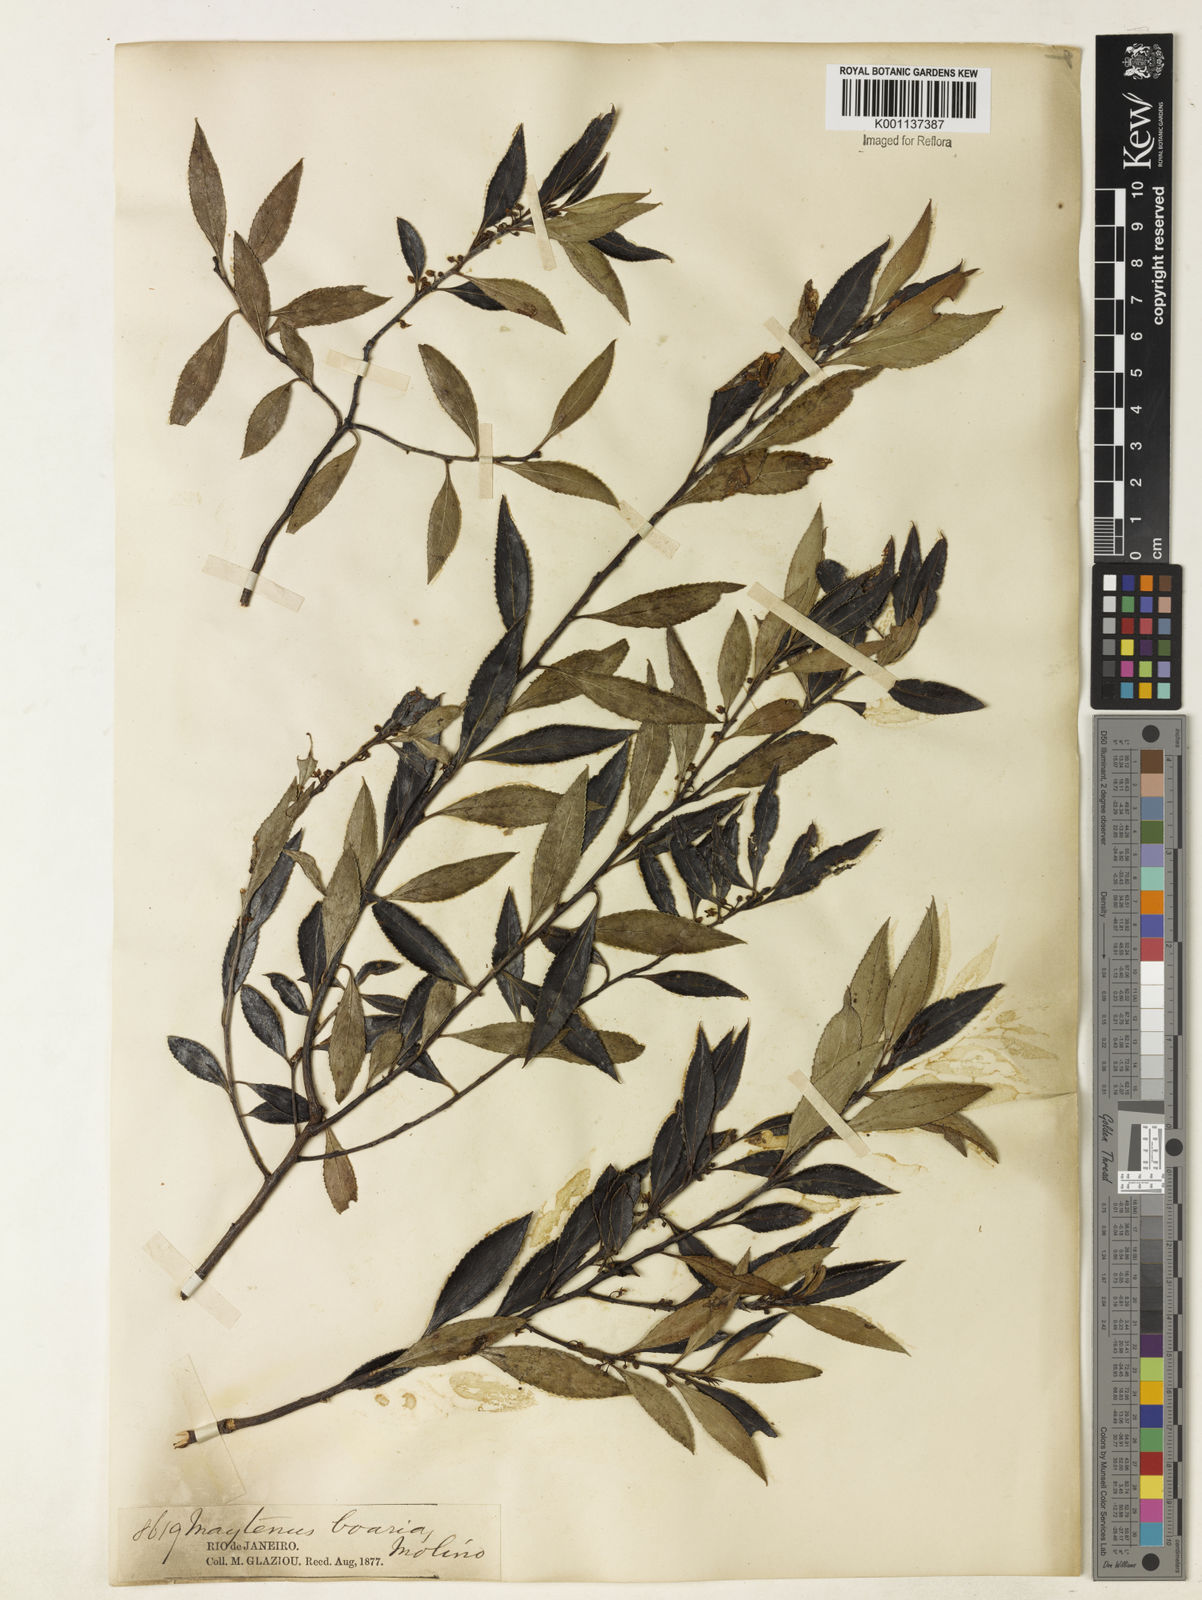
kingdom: Plantae
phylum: Tracheophyta
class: Magnoliopsida
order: Celastrales
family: Celastraceae
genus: Maytenus
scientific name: Maytenus boaria
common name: Mayten
